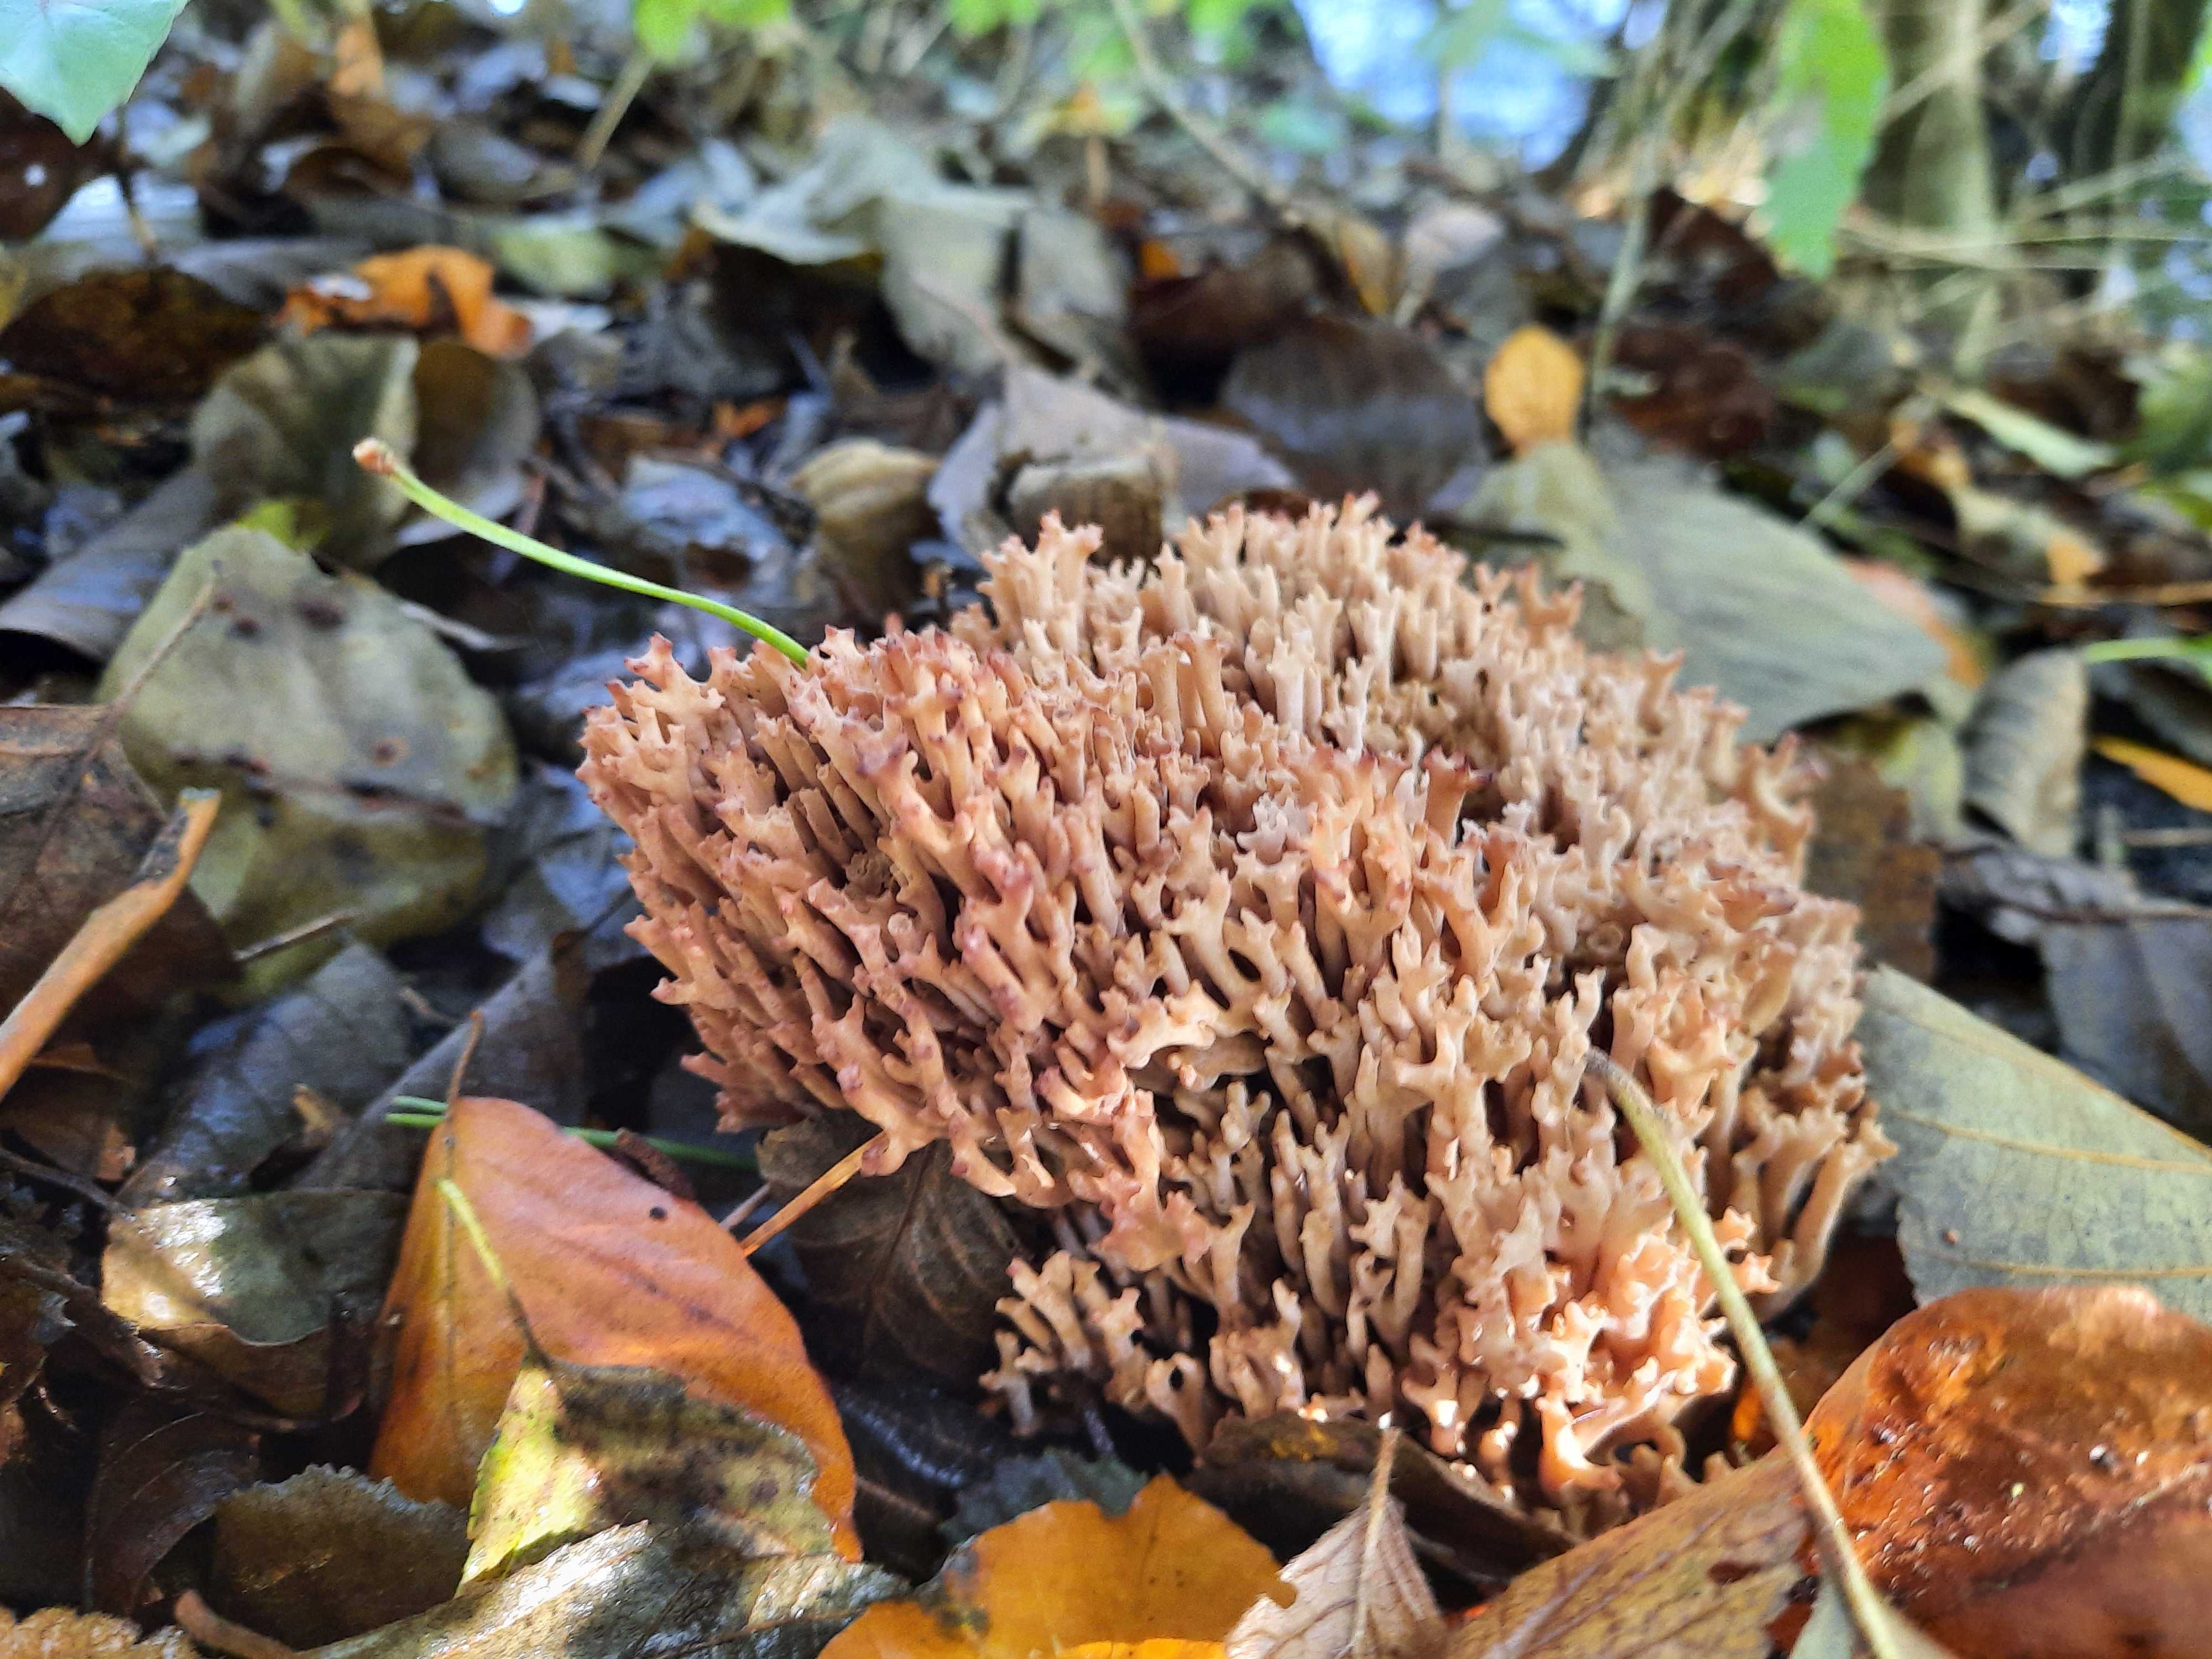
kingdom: Fungi
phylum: Basidiomycota
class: Agaricomycetes
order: Gomphales
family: Gomphaceae
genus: Ramaria
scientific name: Ramaria
